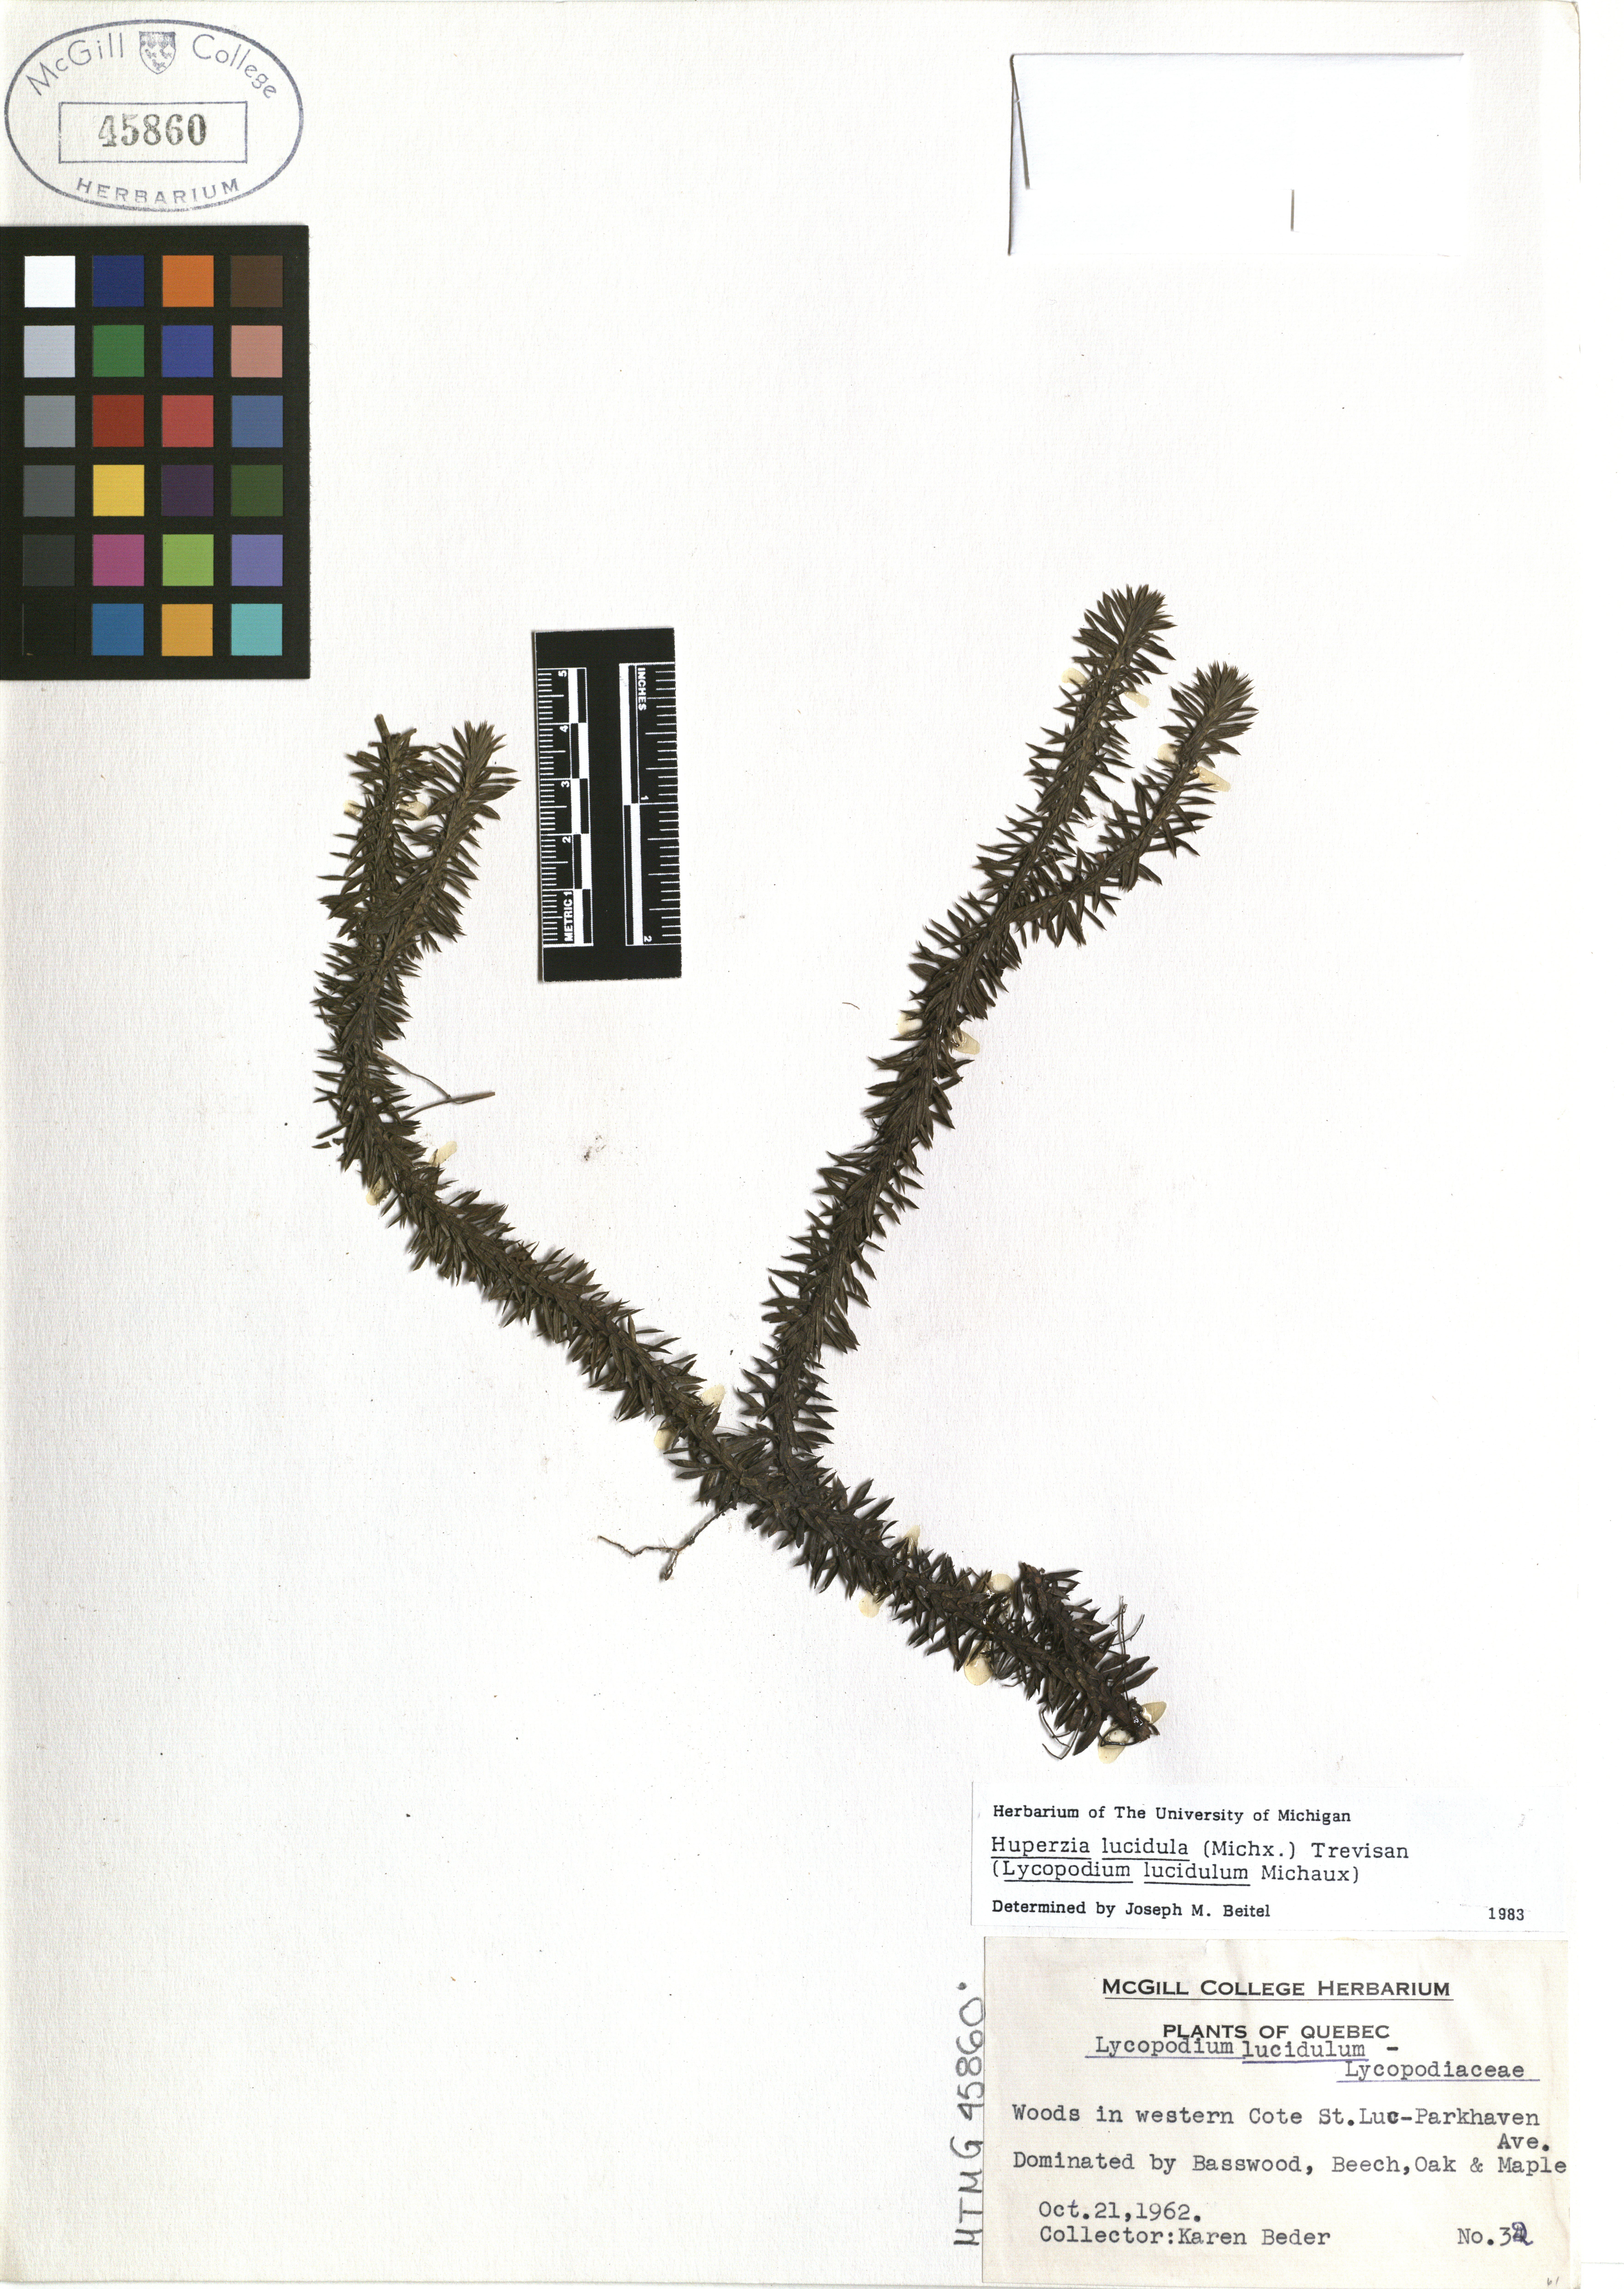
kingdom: Plantae
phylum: Tracheophyta
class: Lycopodiopsida
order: Lycopodiales
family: Lycopodiaceae
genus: Huperzia
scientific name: Huperzia lucidula
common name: Shining clubmoss
